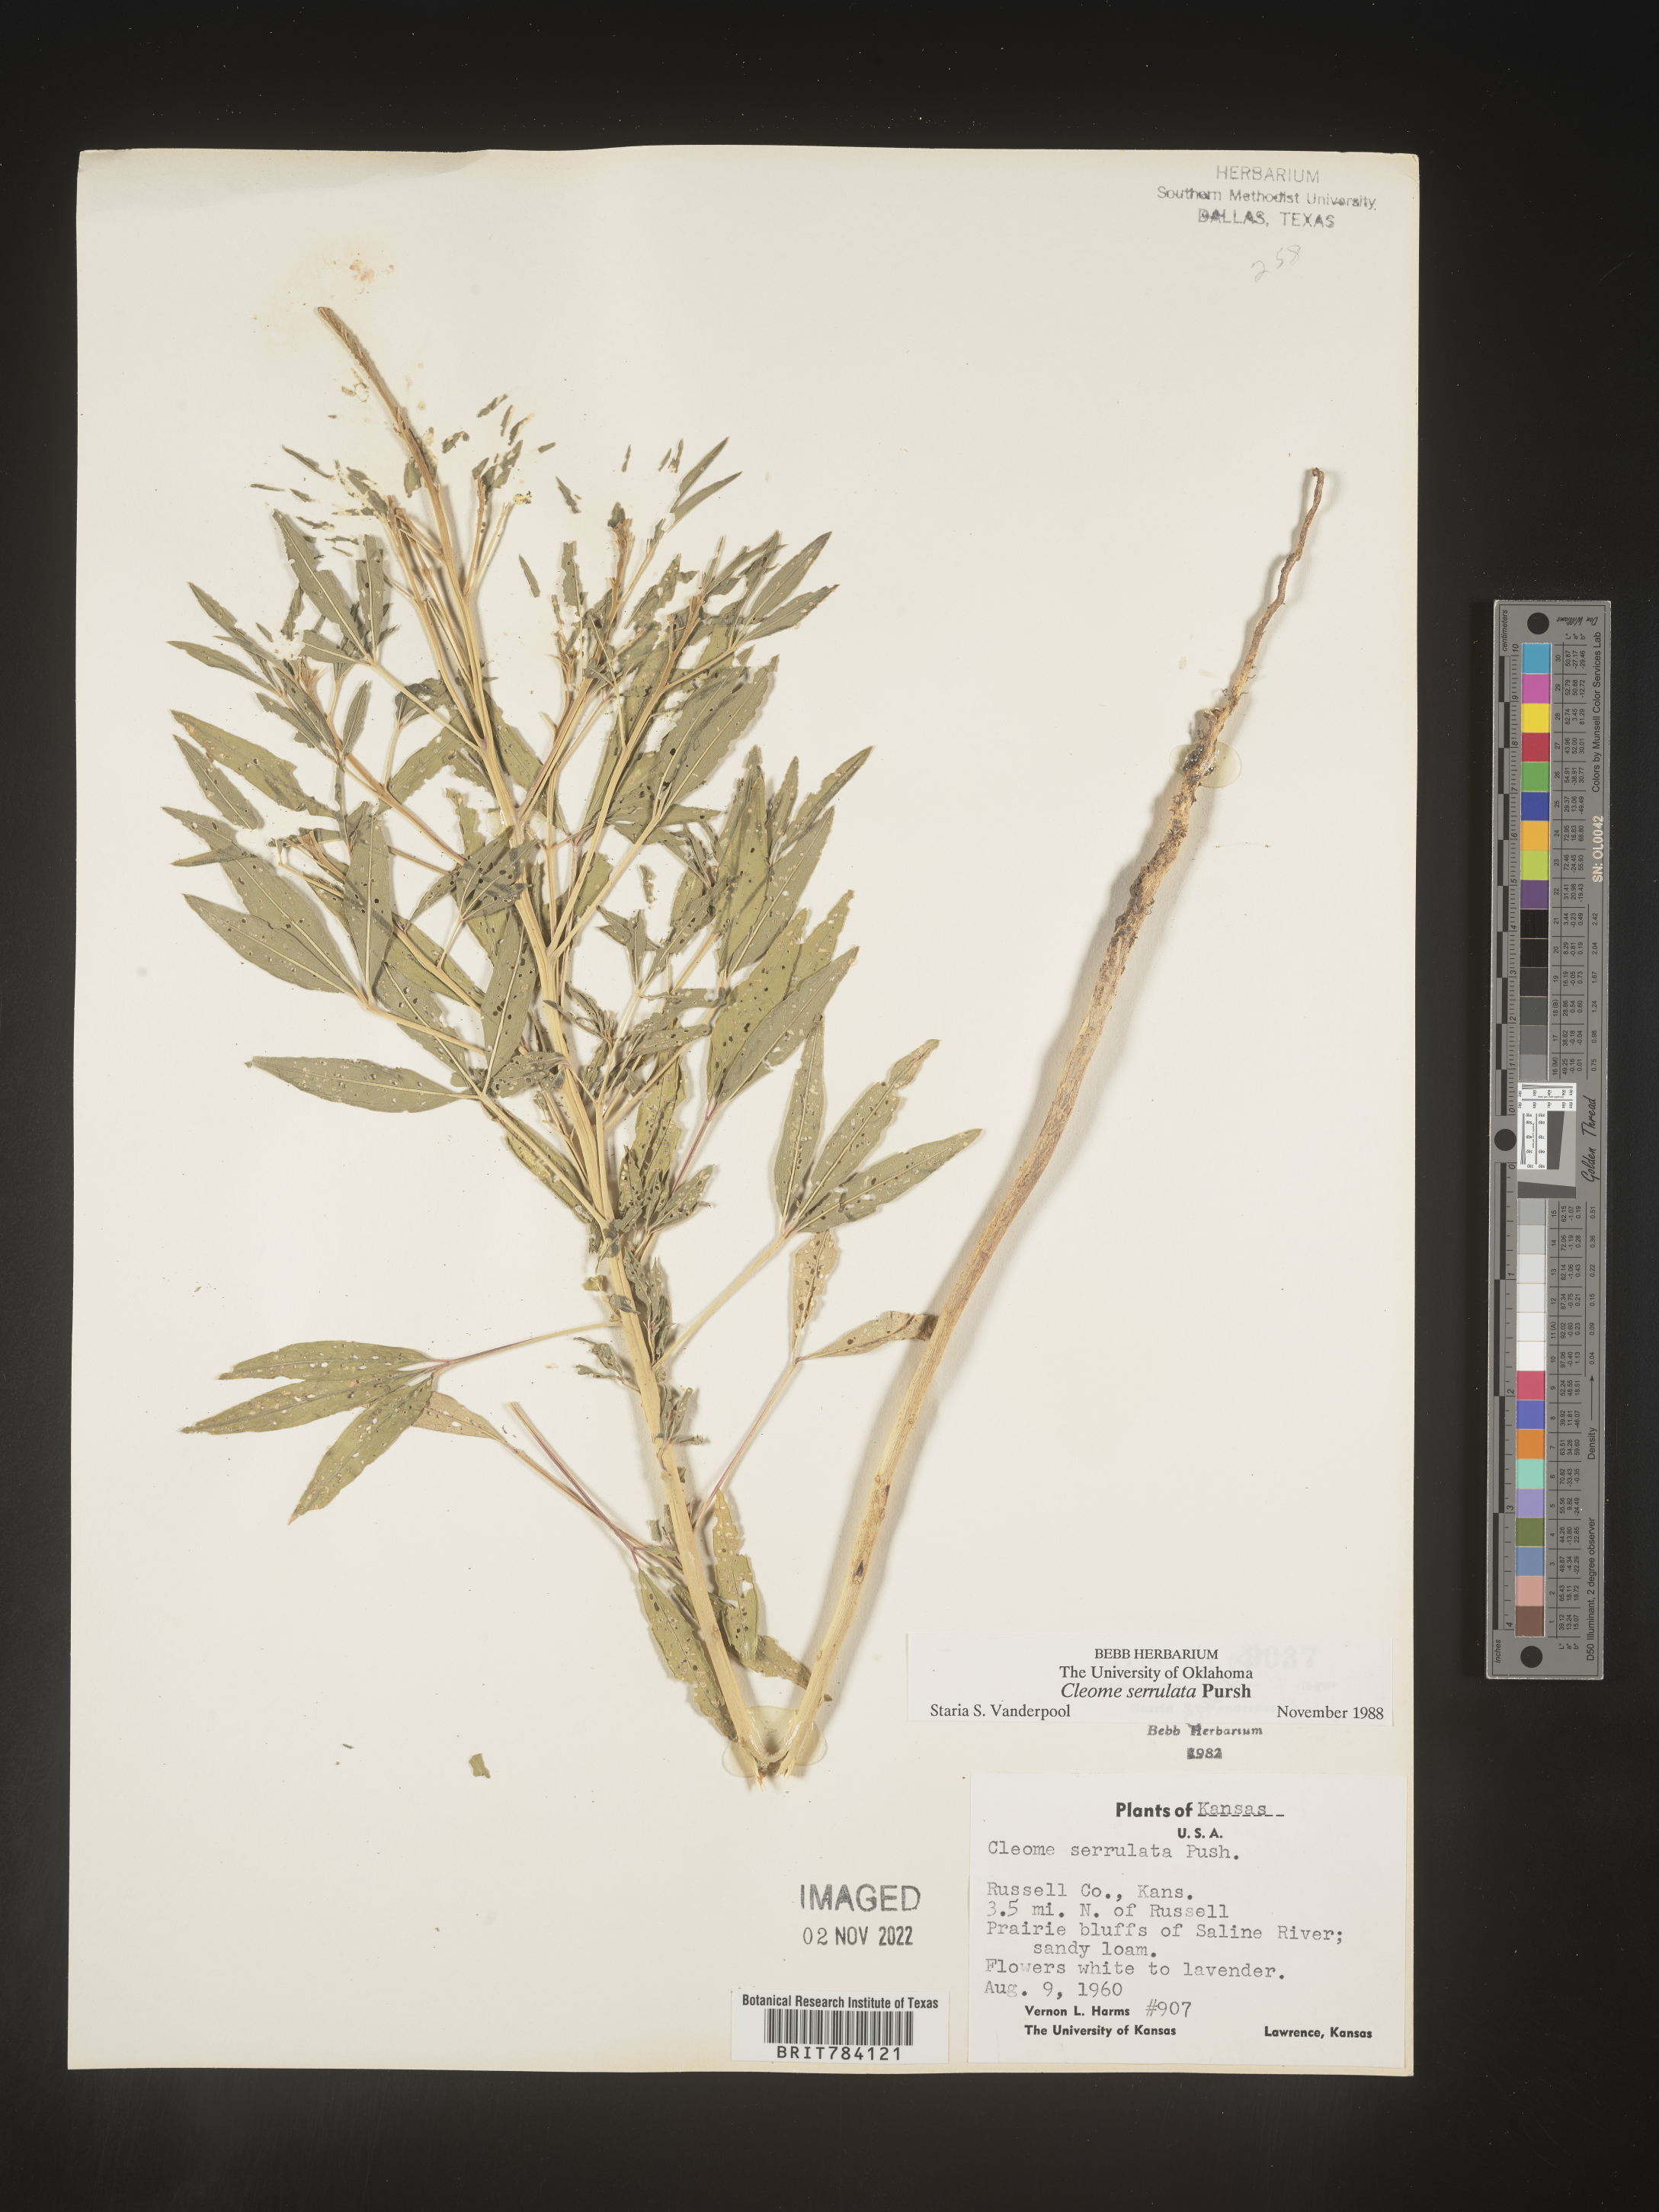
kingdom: Plantae
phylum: Tracheophyta
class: Magnoliopsida
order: Brassicales
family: Cleomaceae
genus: Cleomella
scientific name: Cleomella serrulata
